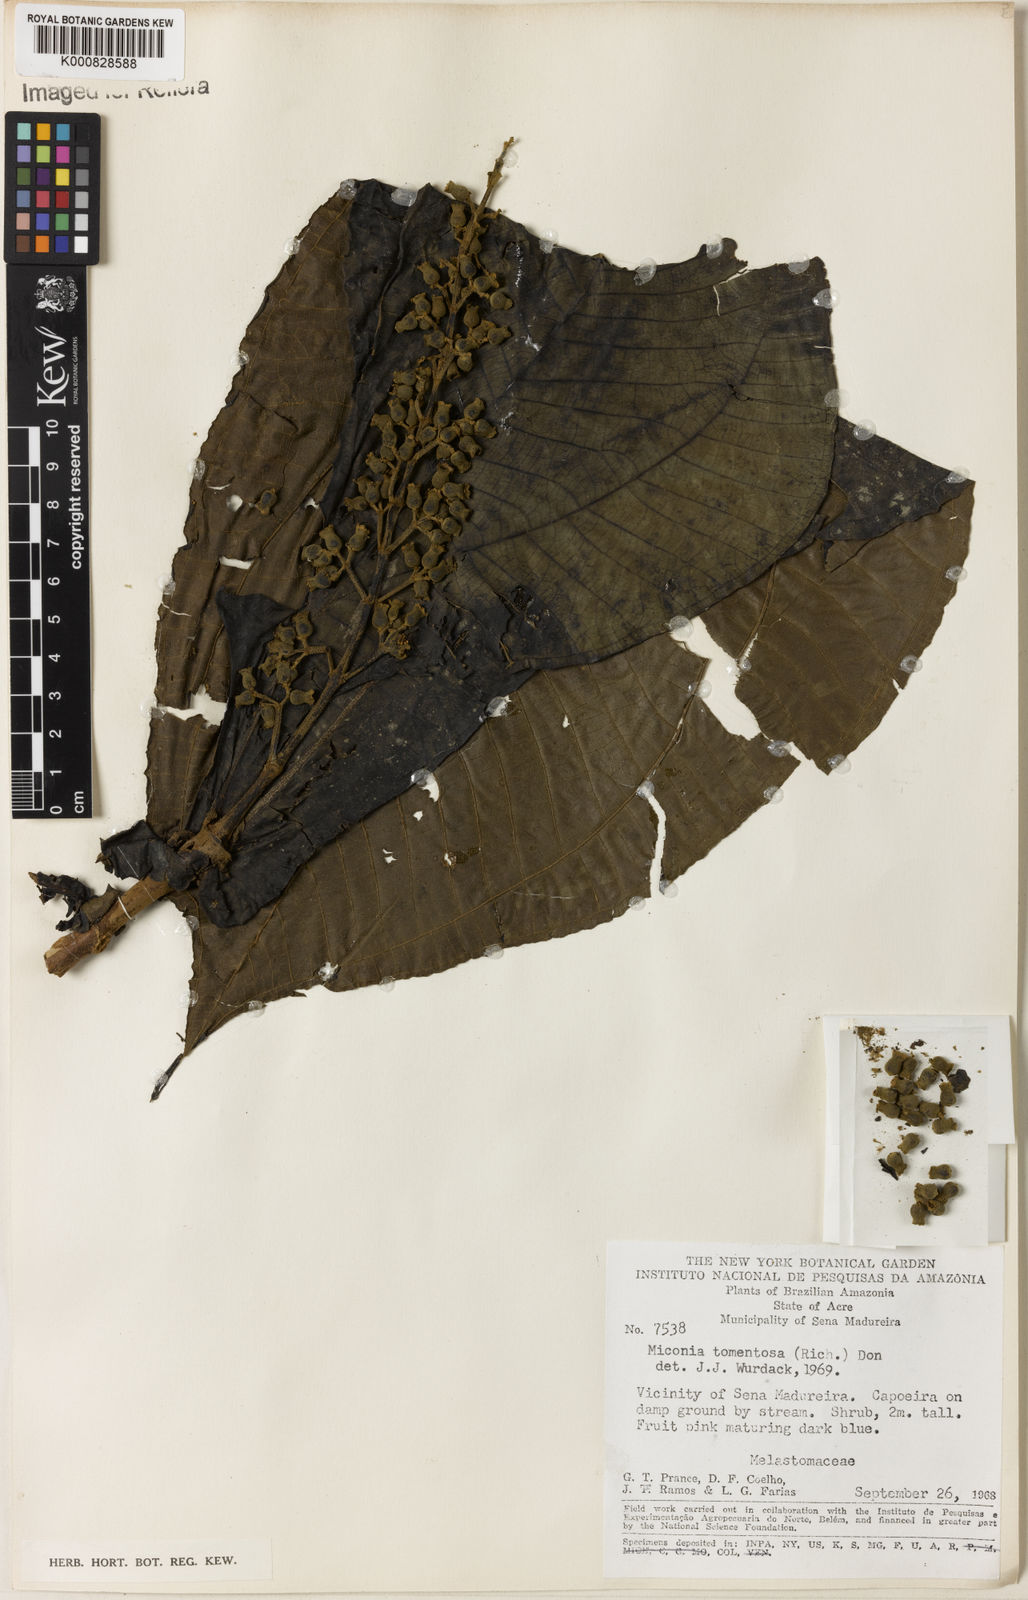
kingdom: Plantae
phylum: Tracheophyta
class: Magnoliopsida
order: Myrtales
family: Melastomataceae
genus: Miconia
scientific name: Miconia tomentosa
